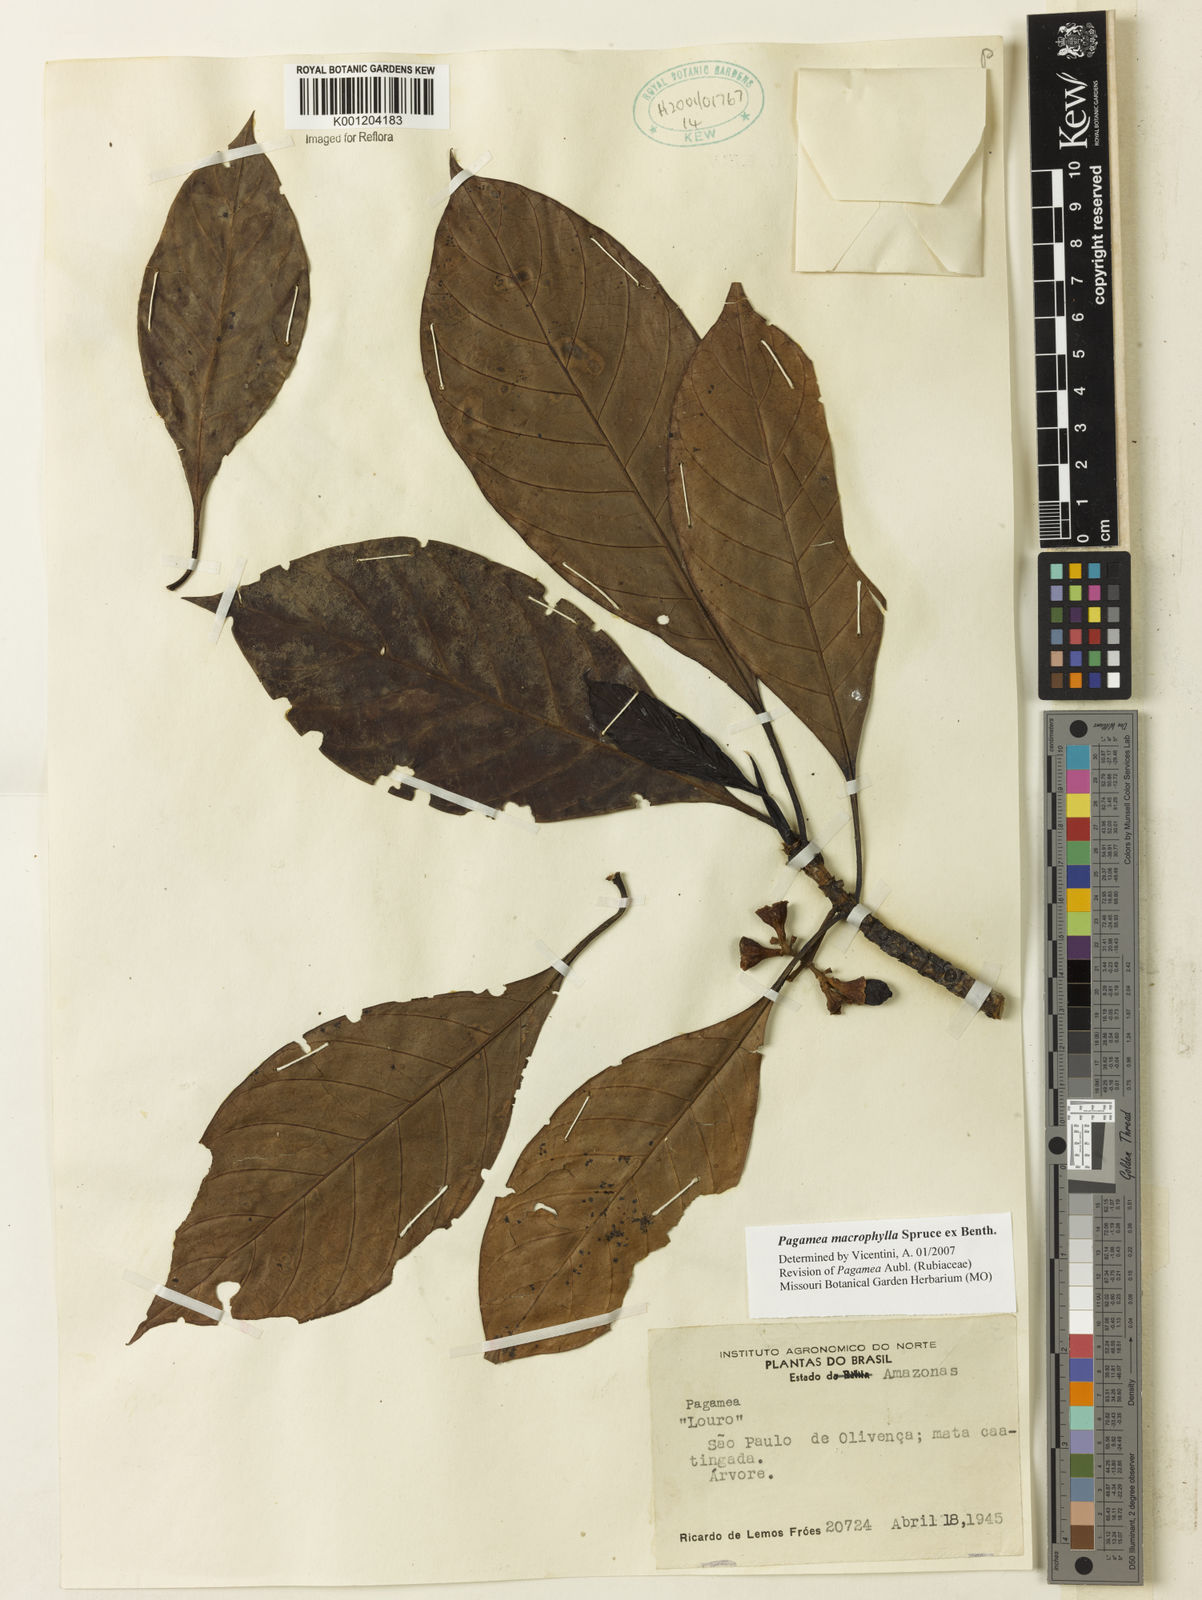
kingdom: Plantae
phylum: Tracheophyta
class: Magnoliopsida
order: Gentianales
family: Rubiaceae
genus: Pagamea
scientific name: Pagamea macrophylla
